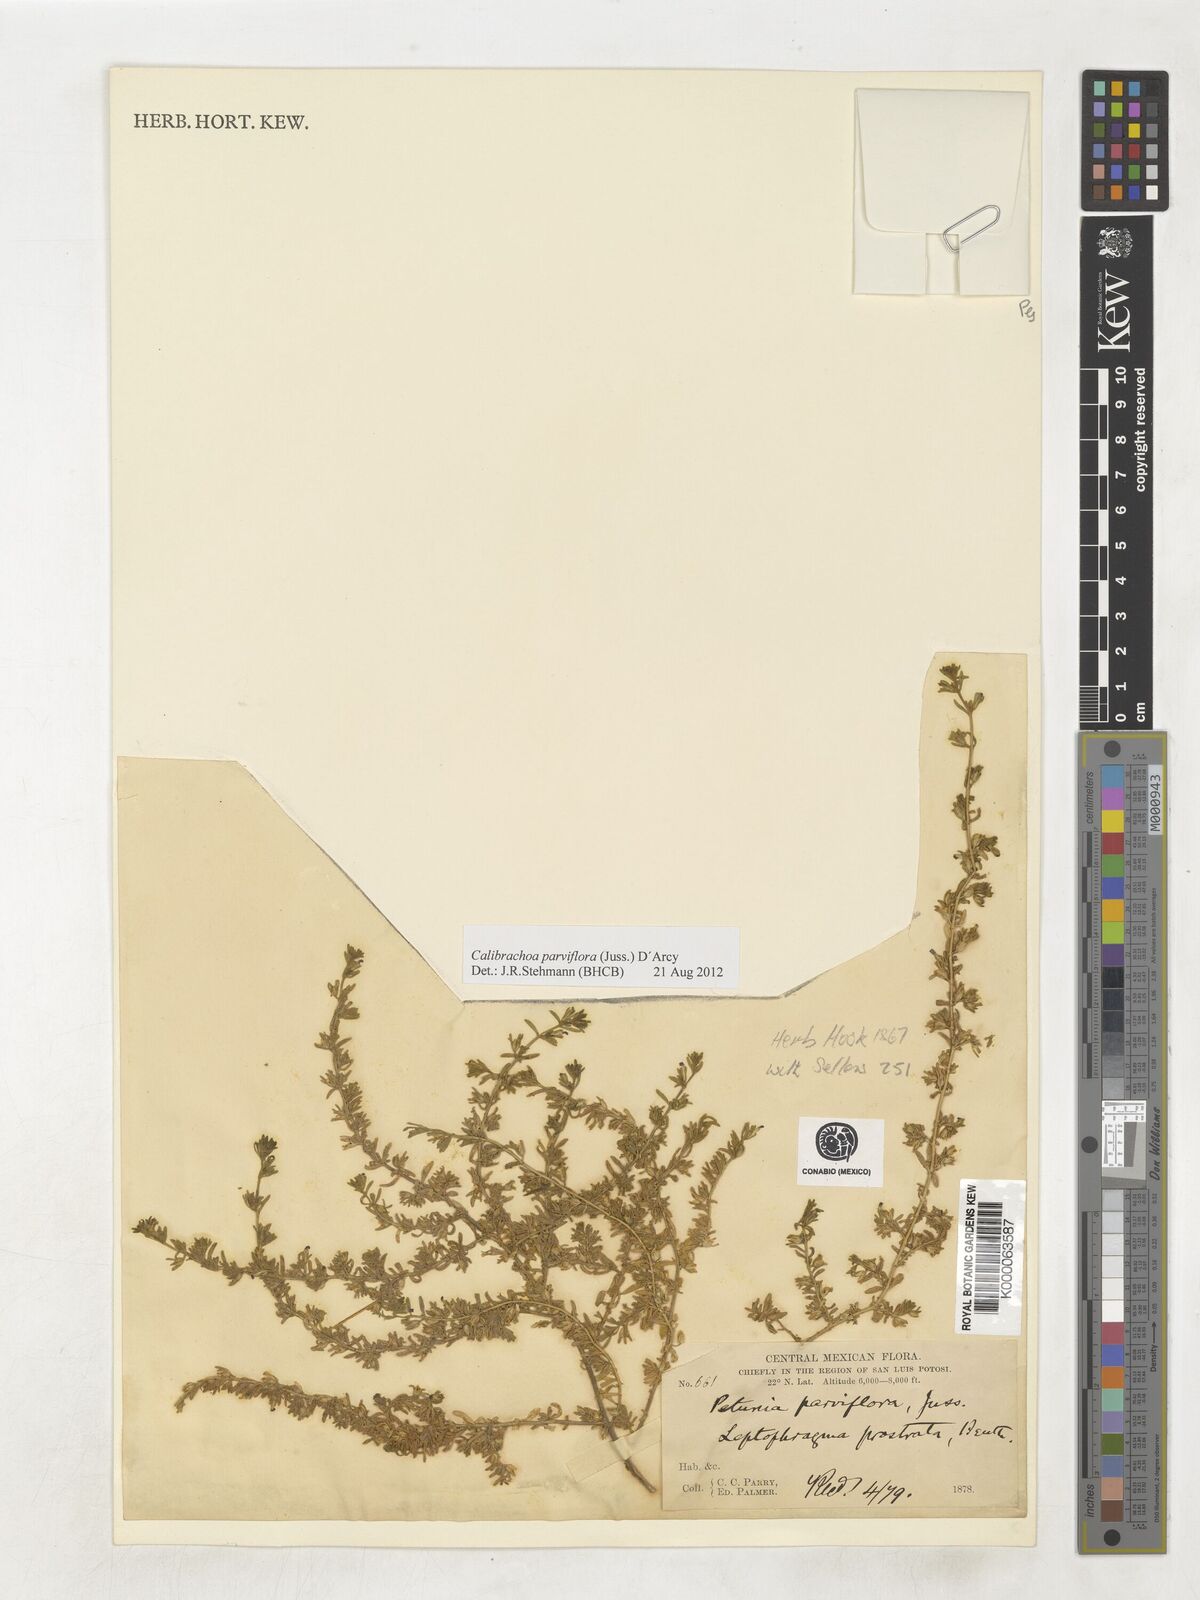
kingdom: Plantae
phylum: Tracheophyta
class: Magnoliopsida
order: Solanales
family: Solanaceae
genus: Calibrachoa
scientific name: Calibrachoa parviflora
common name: Seaside petunia
